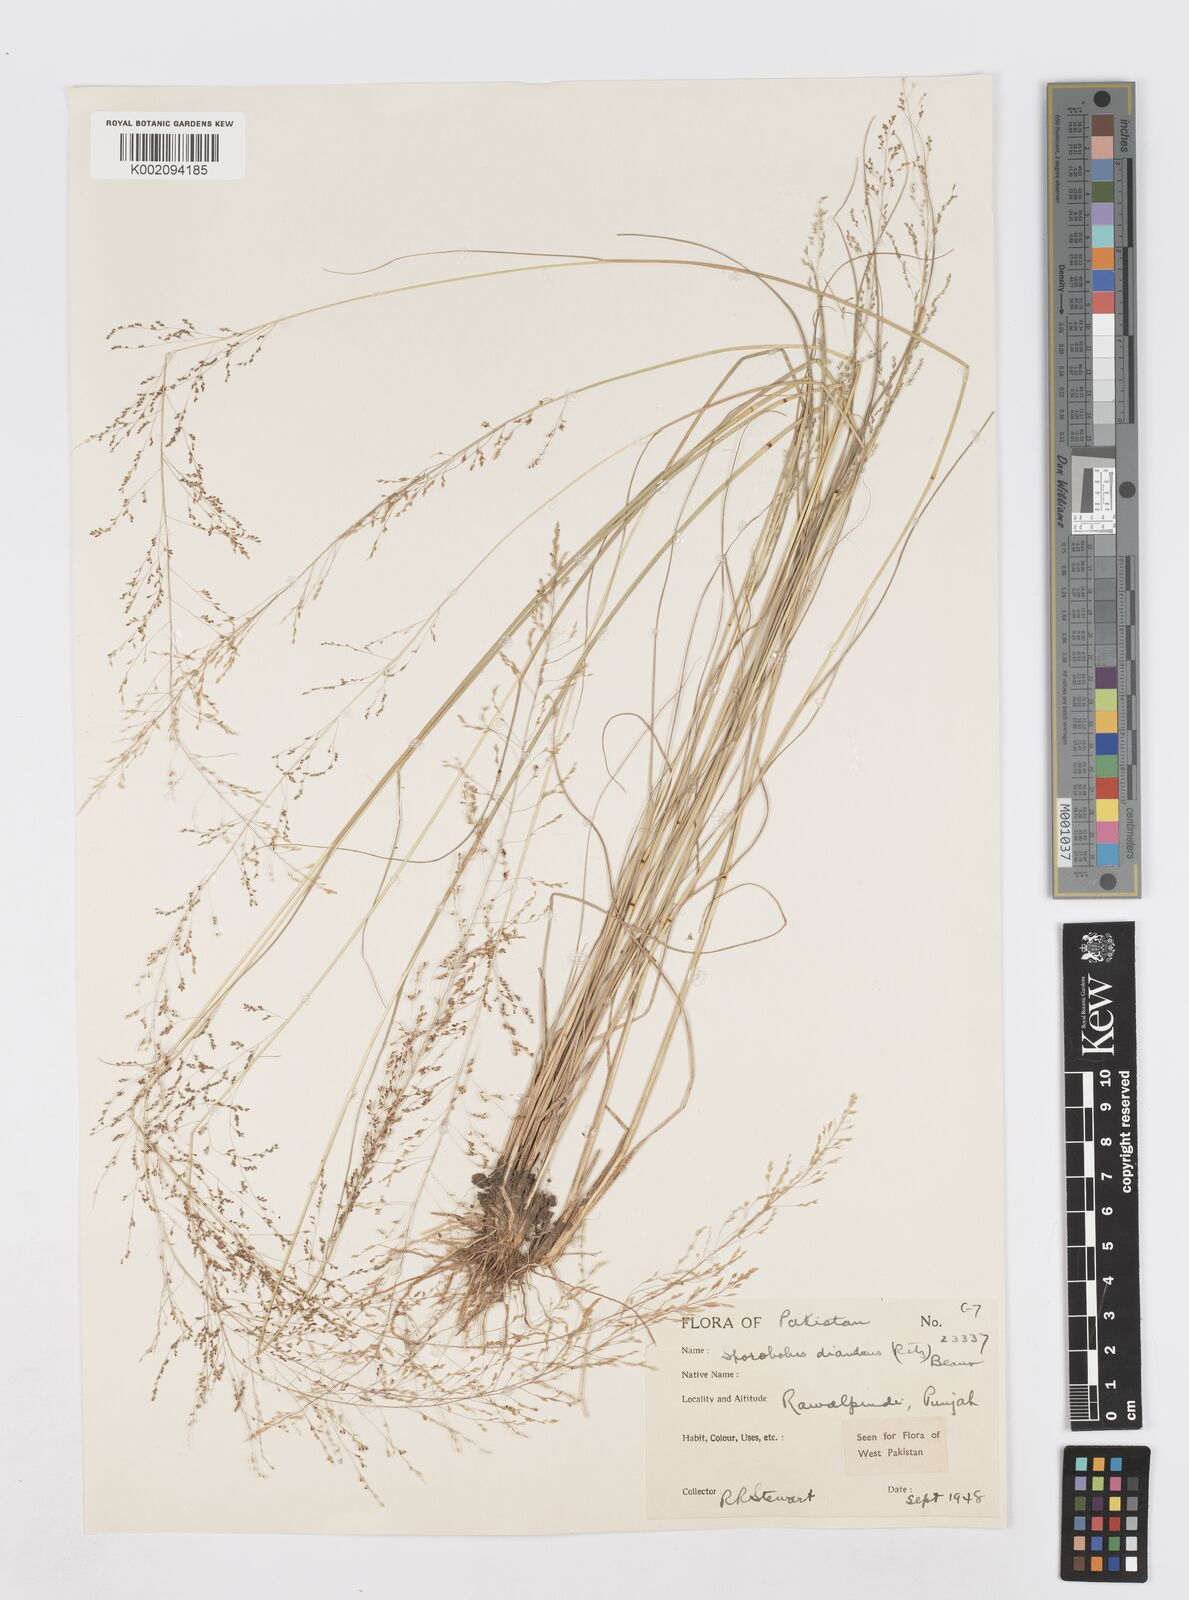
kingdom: Plantae
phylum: Tracheophyta
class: Liliopsida
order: Poales
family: Poaceae
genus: Sporobolus
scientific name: Sporobolus diandrus
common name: Tussock dropseed
